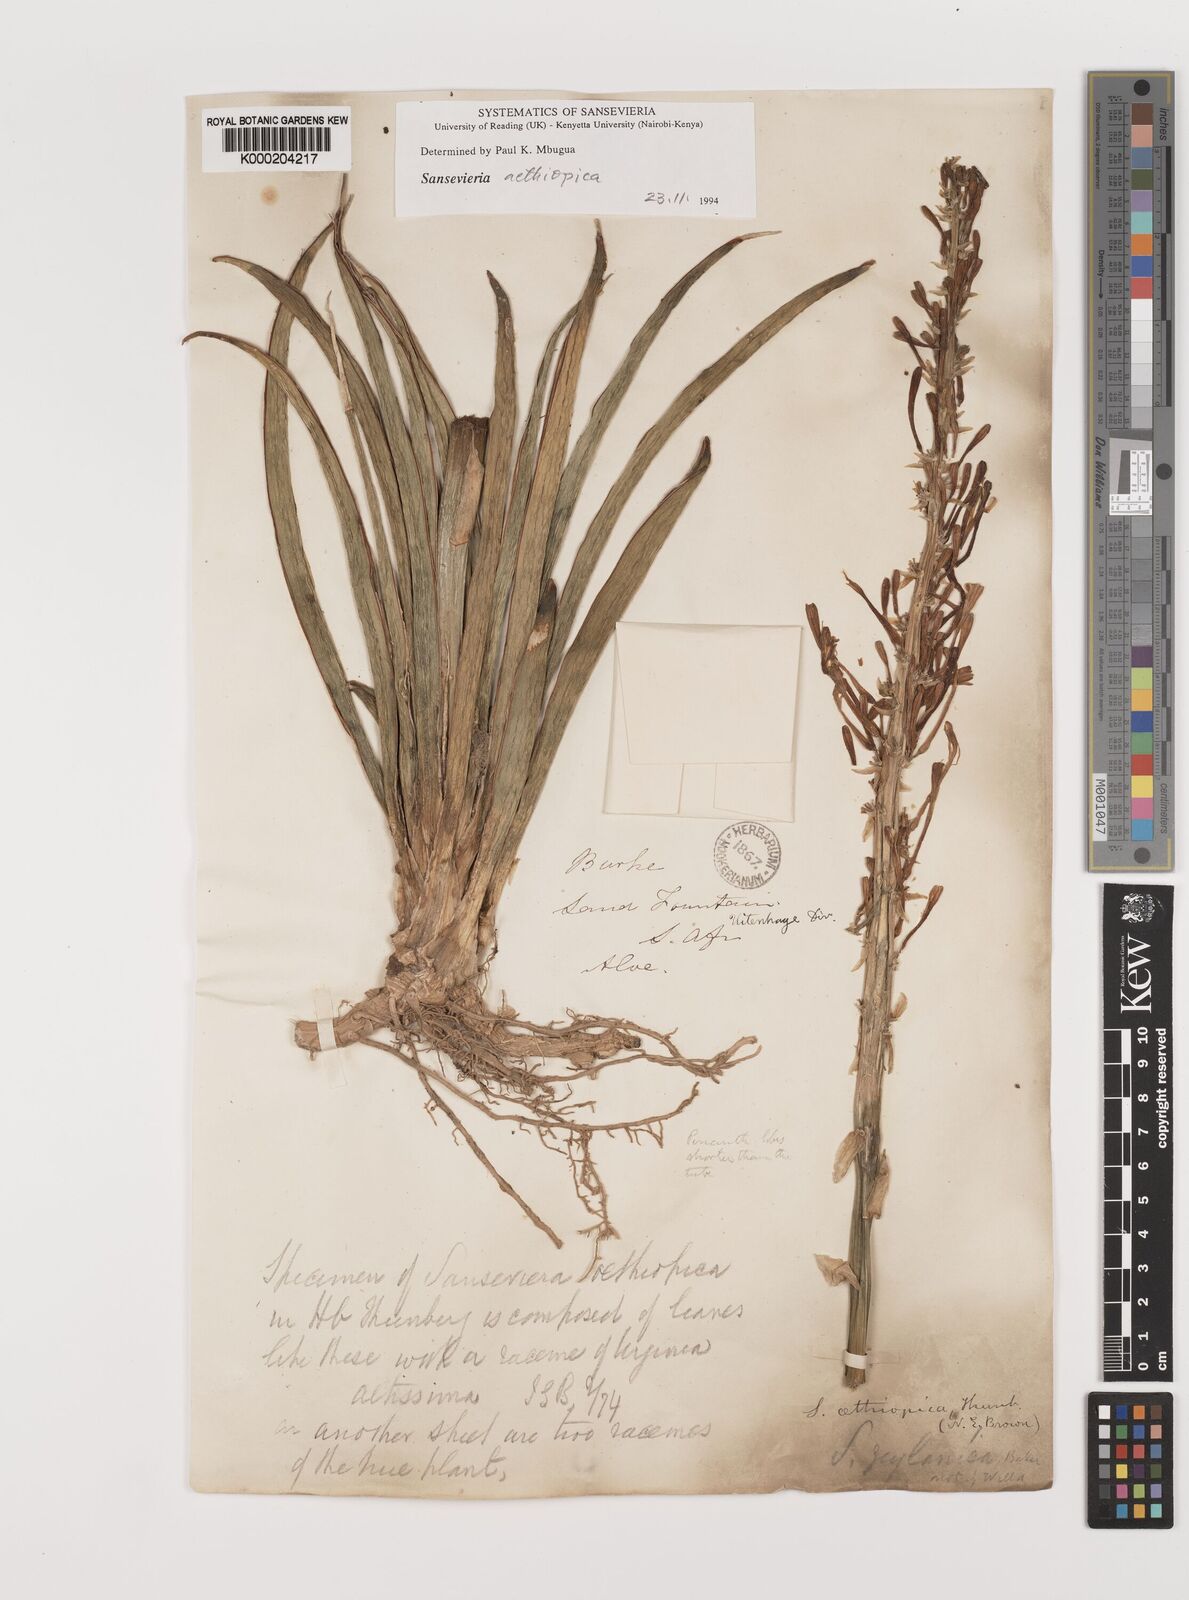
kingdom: Plantae
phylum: Tracheophyta
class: Liliopsida
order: Asparagales
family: Asparagaceae
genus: Dracaena
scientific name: Dracaena aethiopica
